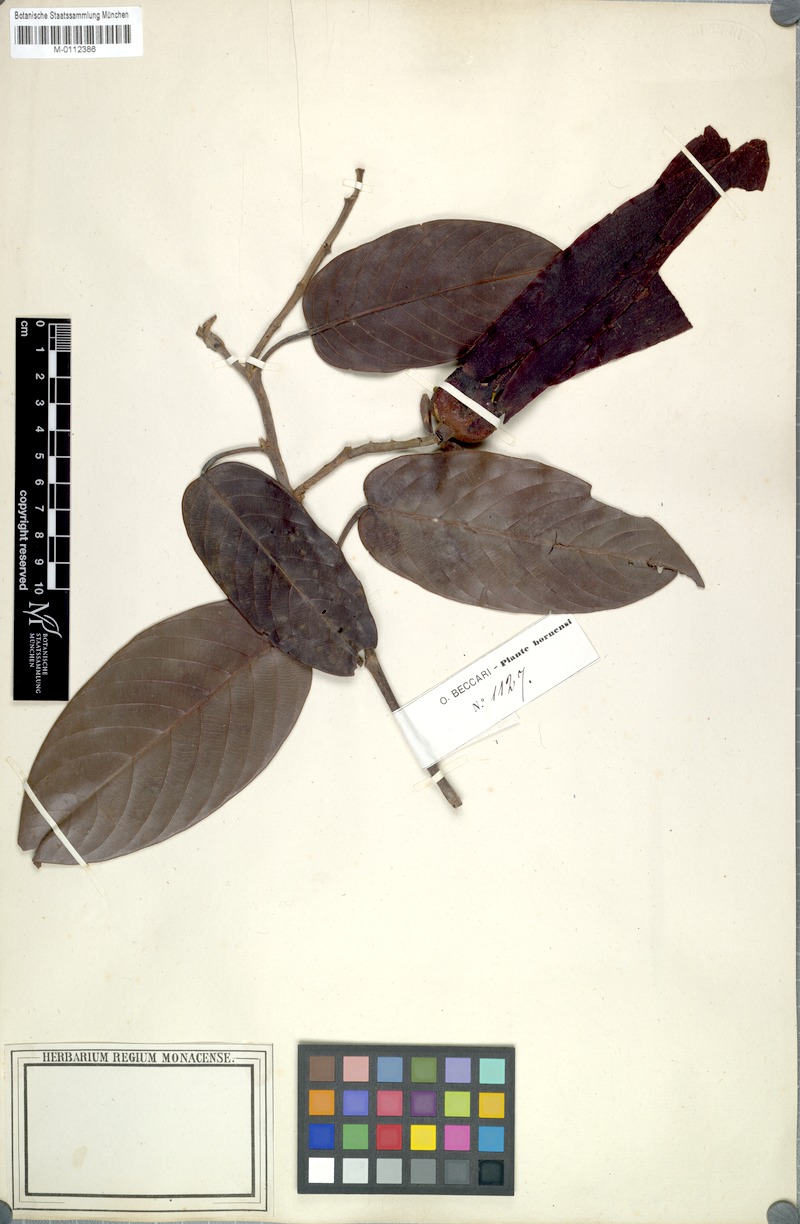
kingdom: Plantae
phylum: Tracheophyta
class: Magnoliopsida
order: Malvales
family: Dipterocarpaceae
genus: Shorea
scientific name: Shorea beccariana
